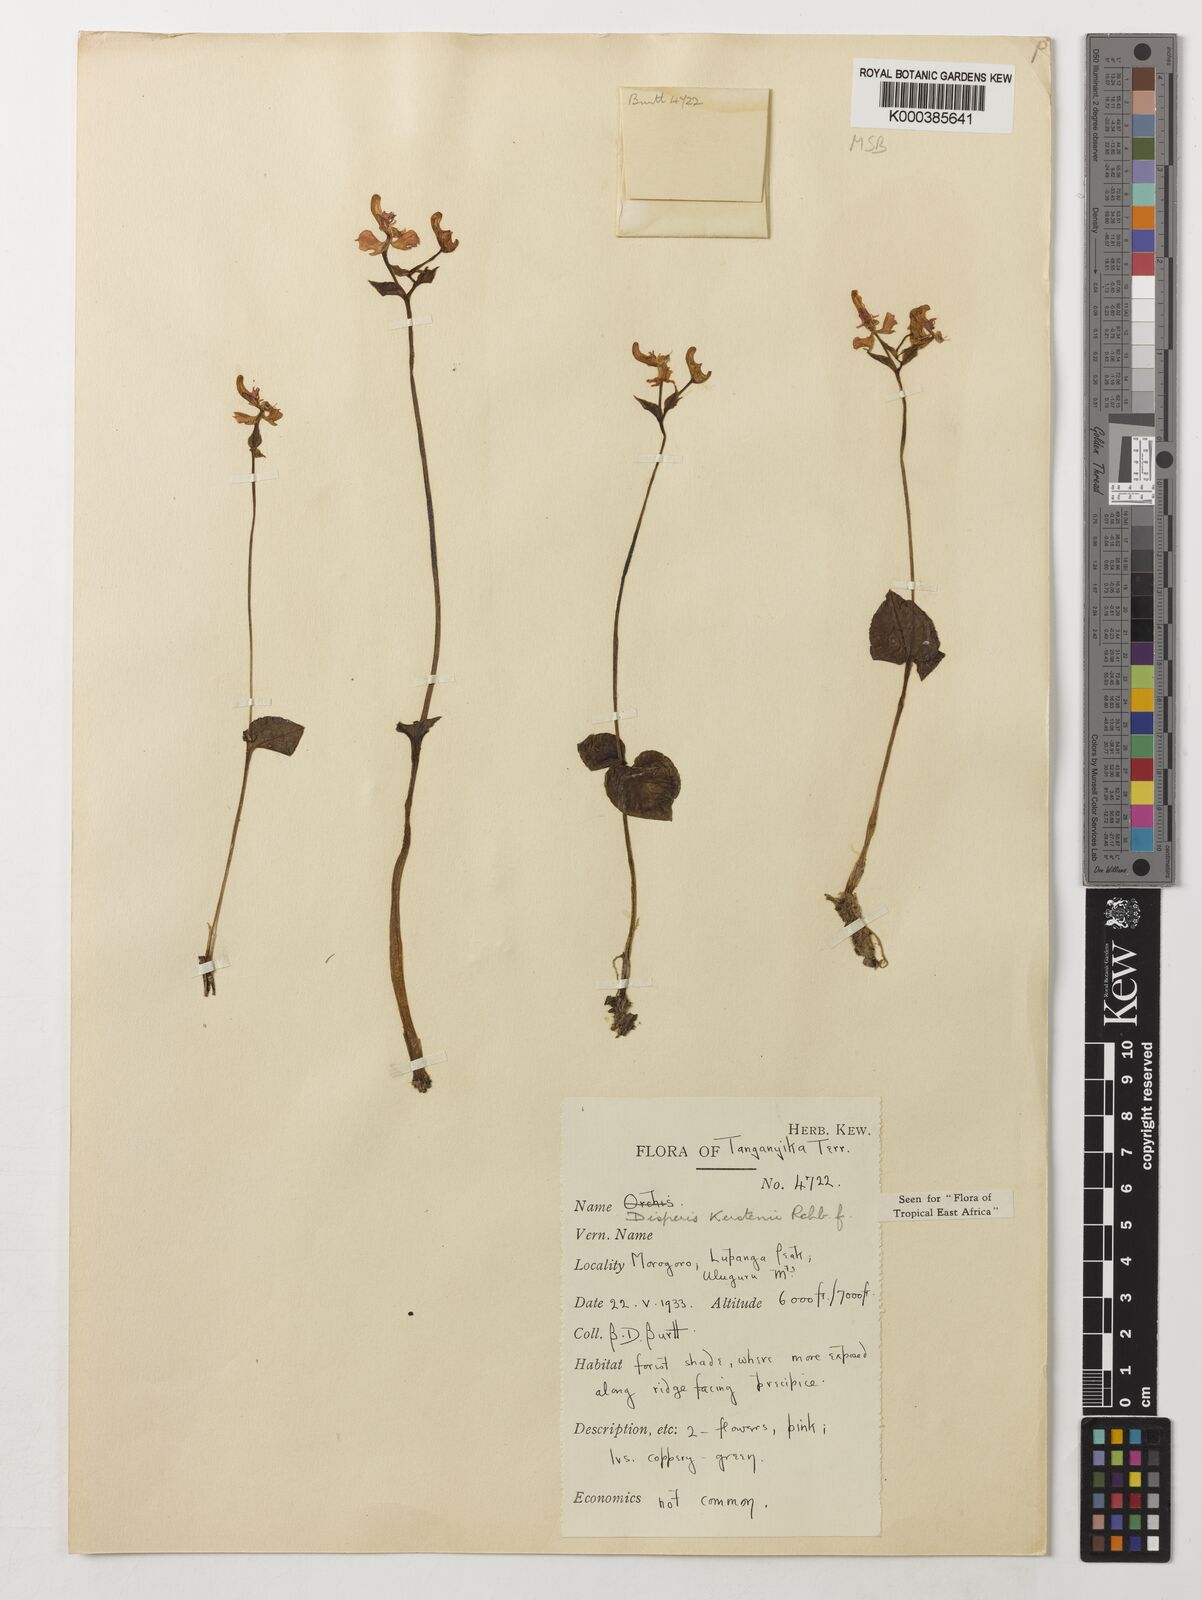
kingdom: Plantae
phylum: Tracheophyta
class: Liliopsida
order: Asparagales
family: Orchidaceae
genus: Disperis
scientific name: Disperis kerstenii
